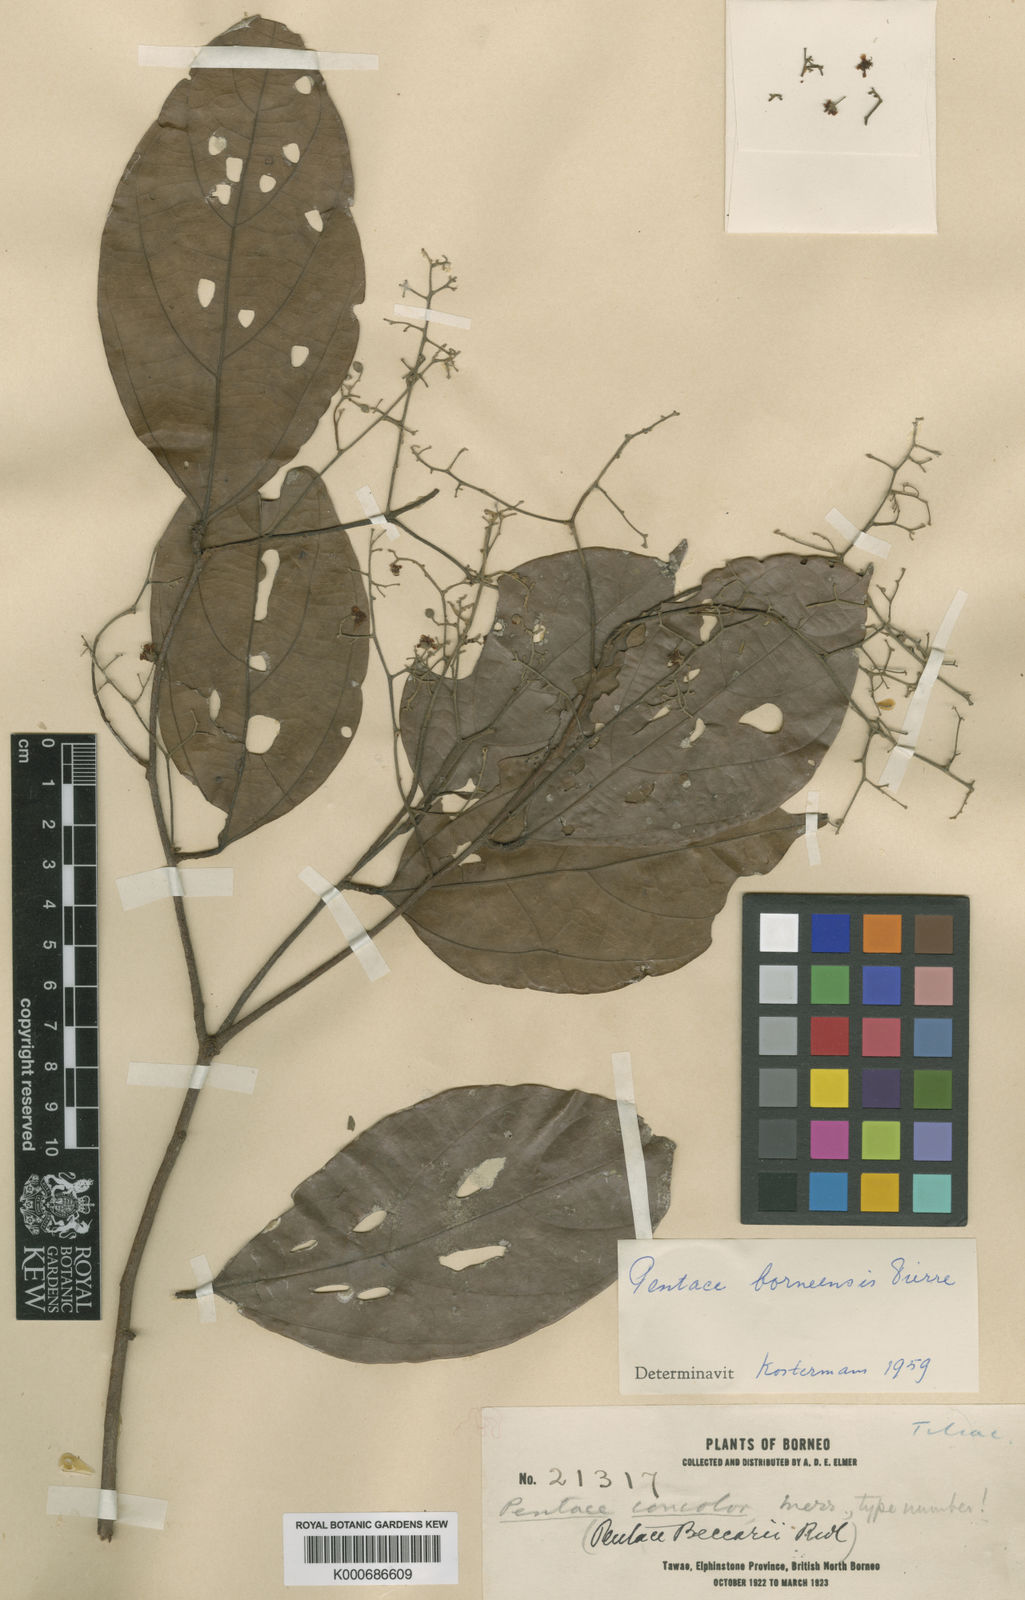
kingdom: Plantae
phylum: Tracheophyta
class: Magnoliopsida
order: Malvales
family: Malvaceae
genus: Pentace
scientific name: Pentace discolor
